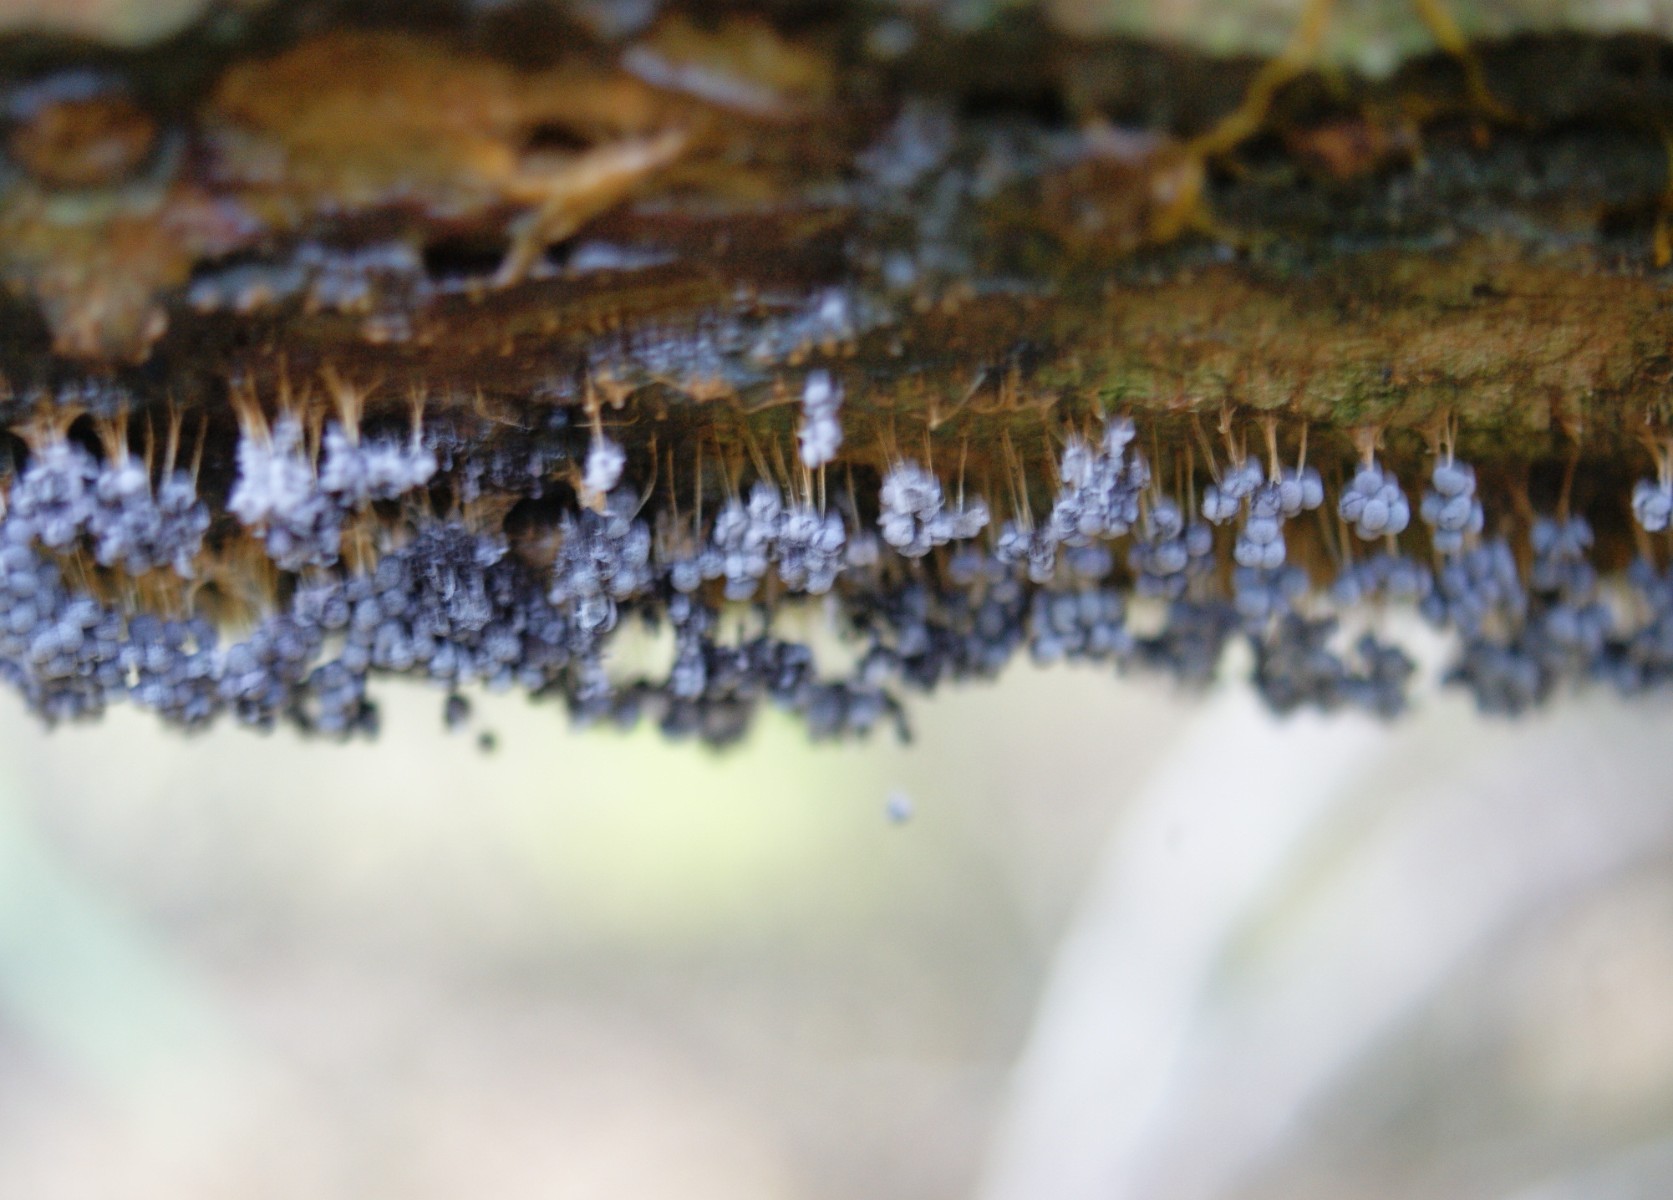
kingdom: Protozoa
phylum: Mycetozoa
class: Myxomycetes
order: Physarales
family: Physaraceae
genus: Badhamia
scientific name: Badhamia utricularis
